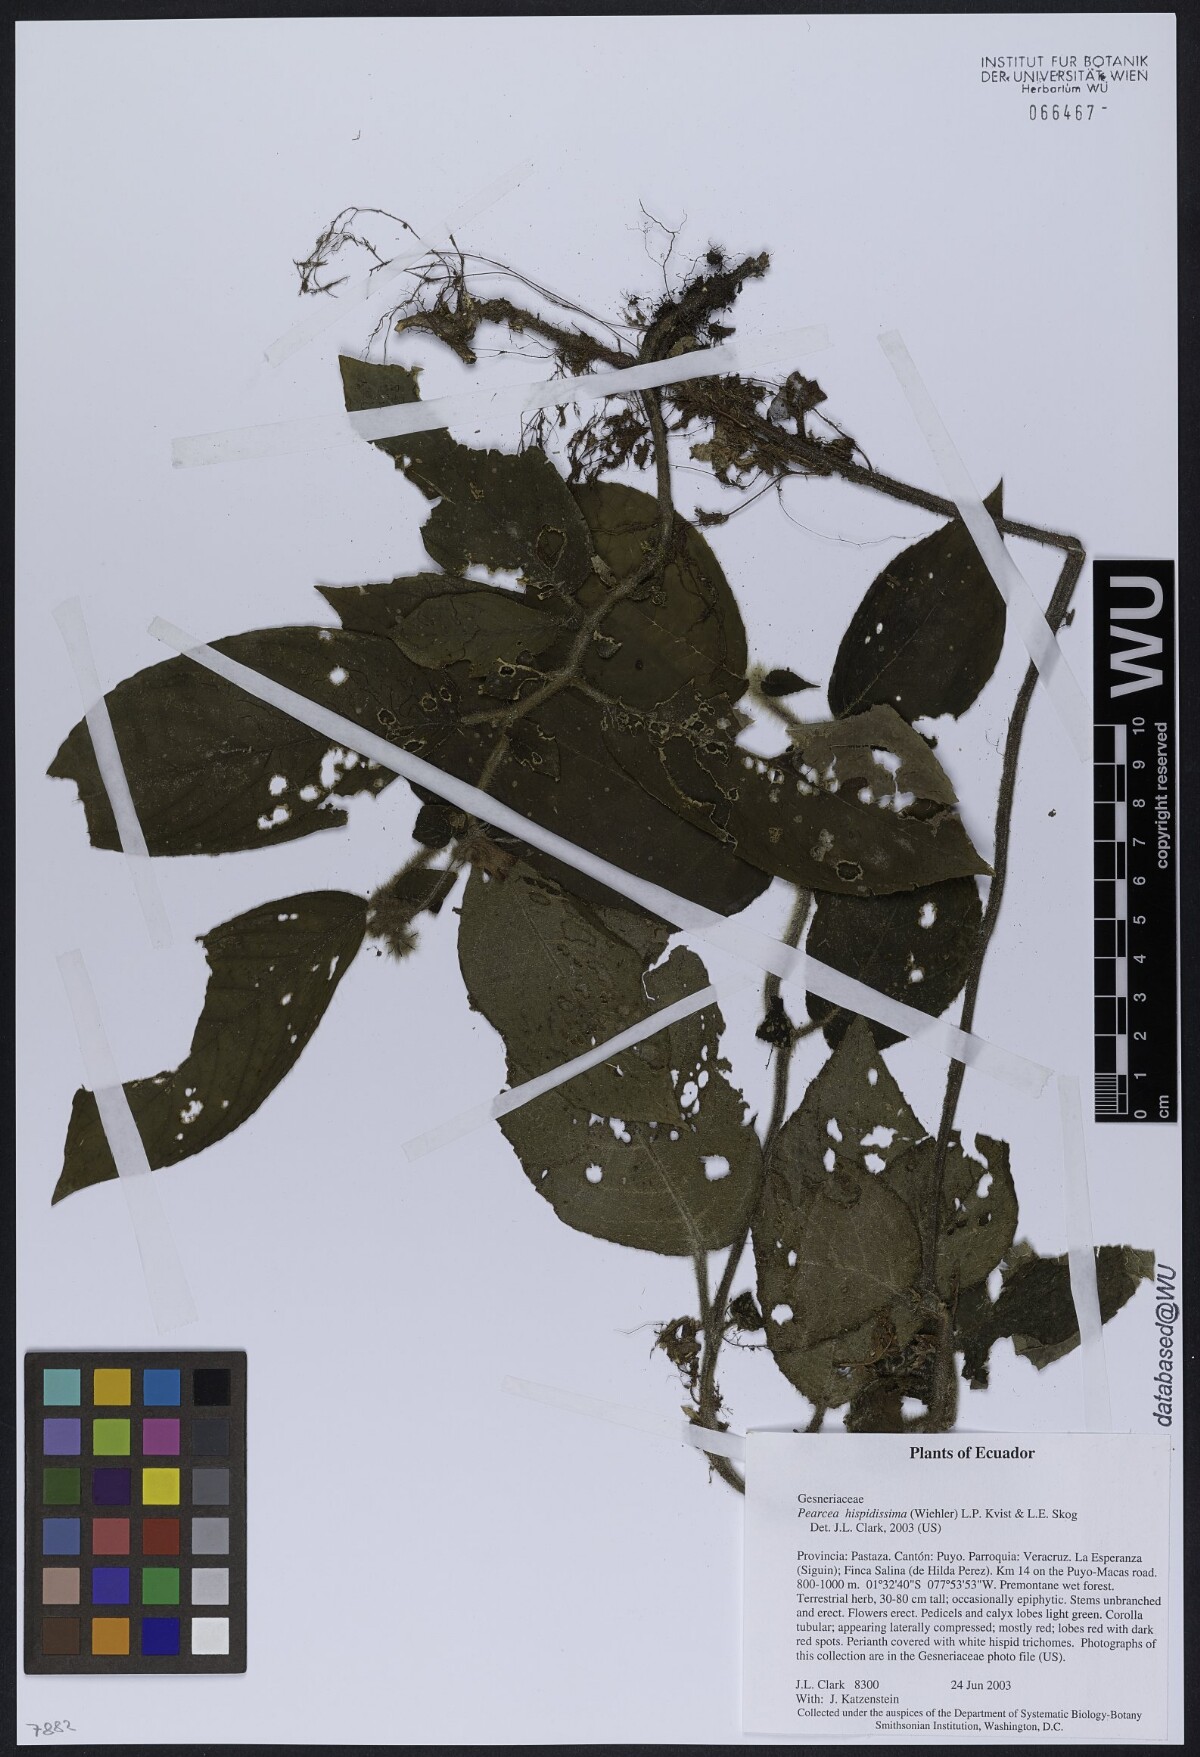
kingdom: Plantae
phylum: Tracheophyta
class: Magnoliopsida
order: Lamiales
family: Gesneriaceae
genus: Pearcea
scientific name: Pearcea hispidissima
